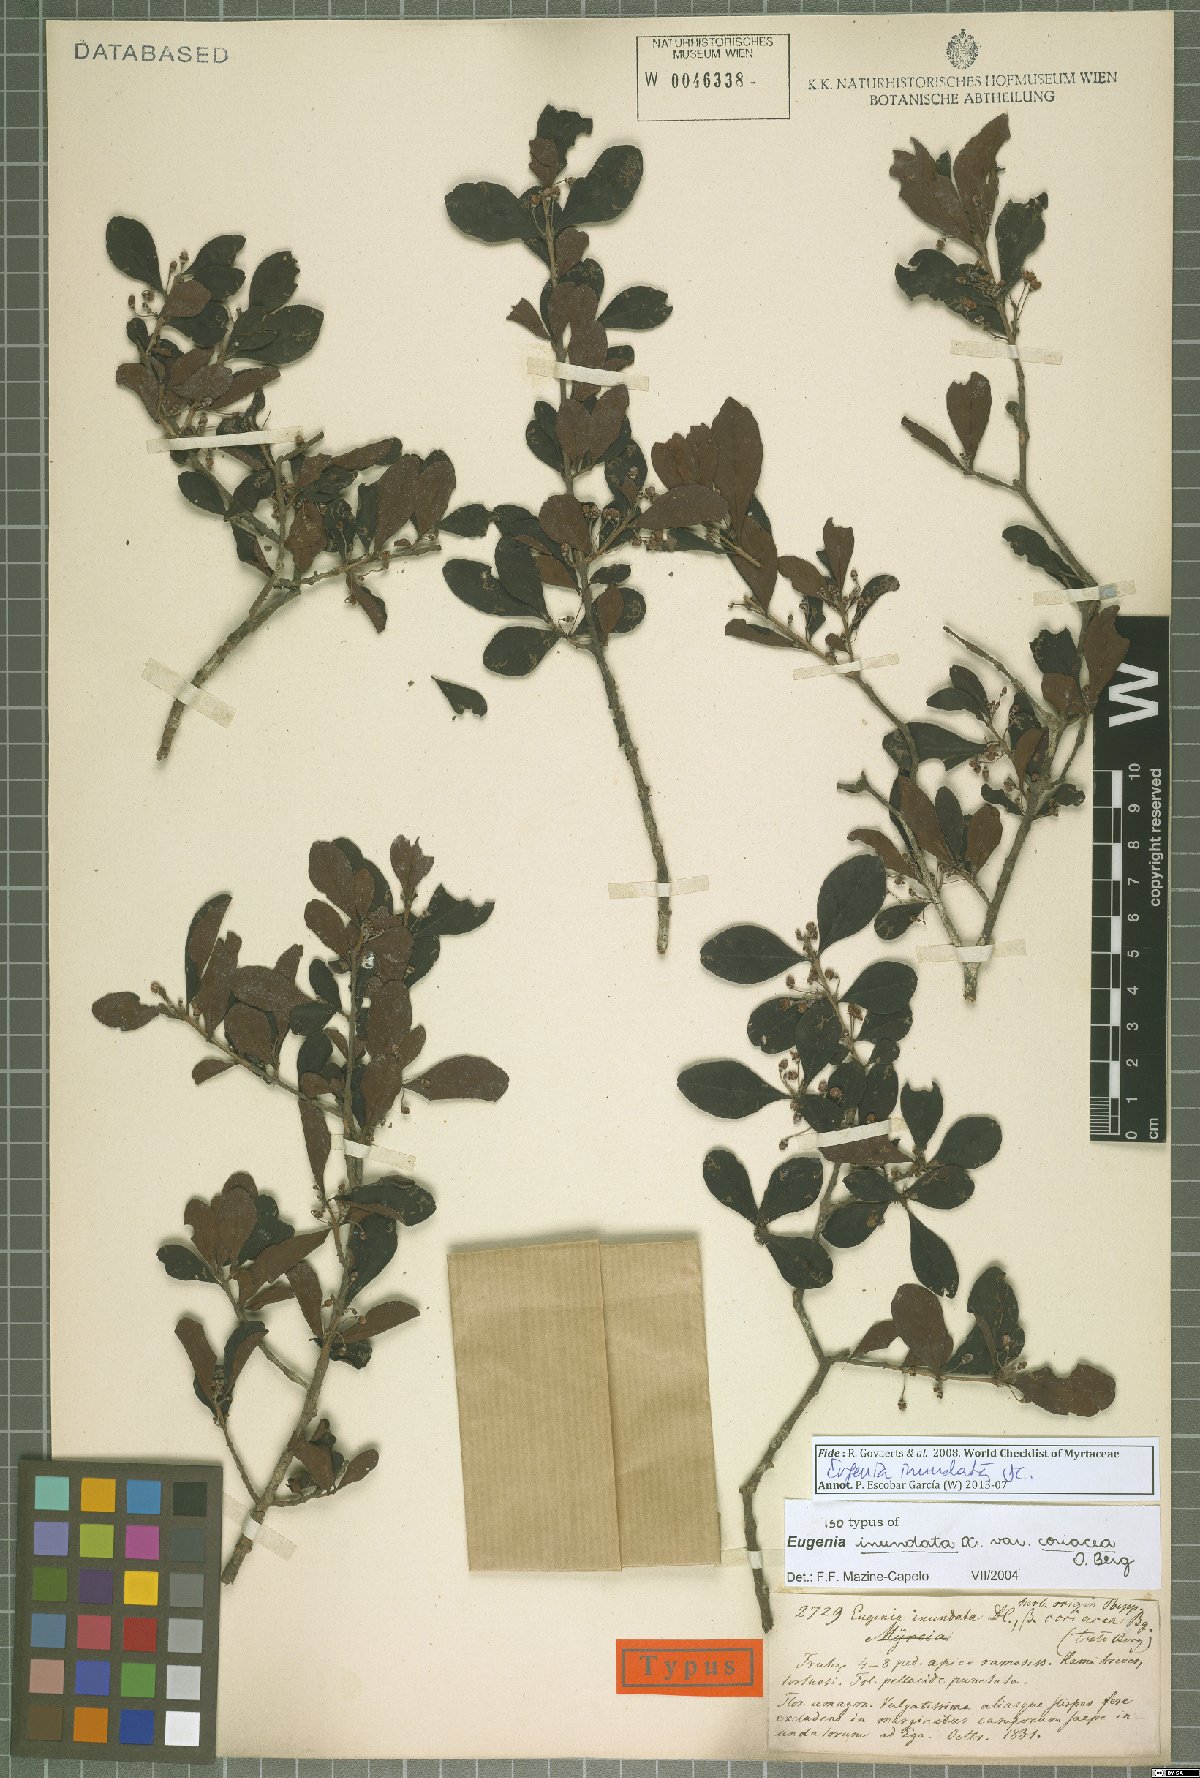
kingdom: Plantae
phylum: Tracheophyta
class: Magnoliopsida
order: Myrtales
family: Myrtaceae
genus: Eugenia
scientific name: Eugenia inundata
